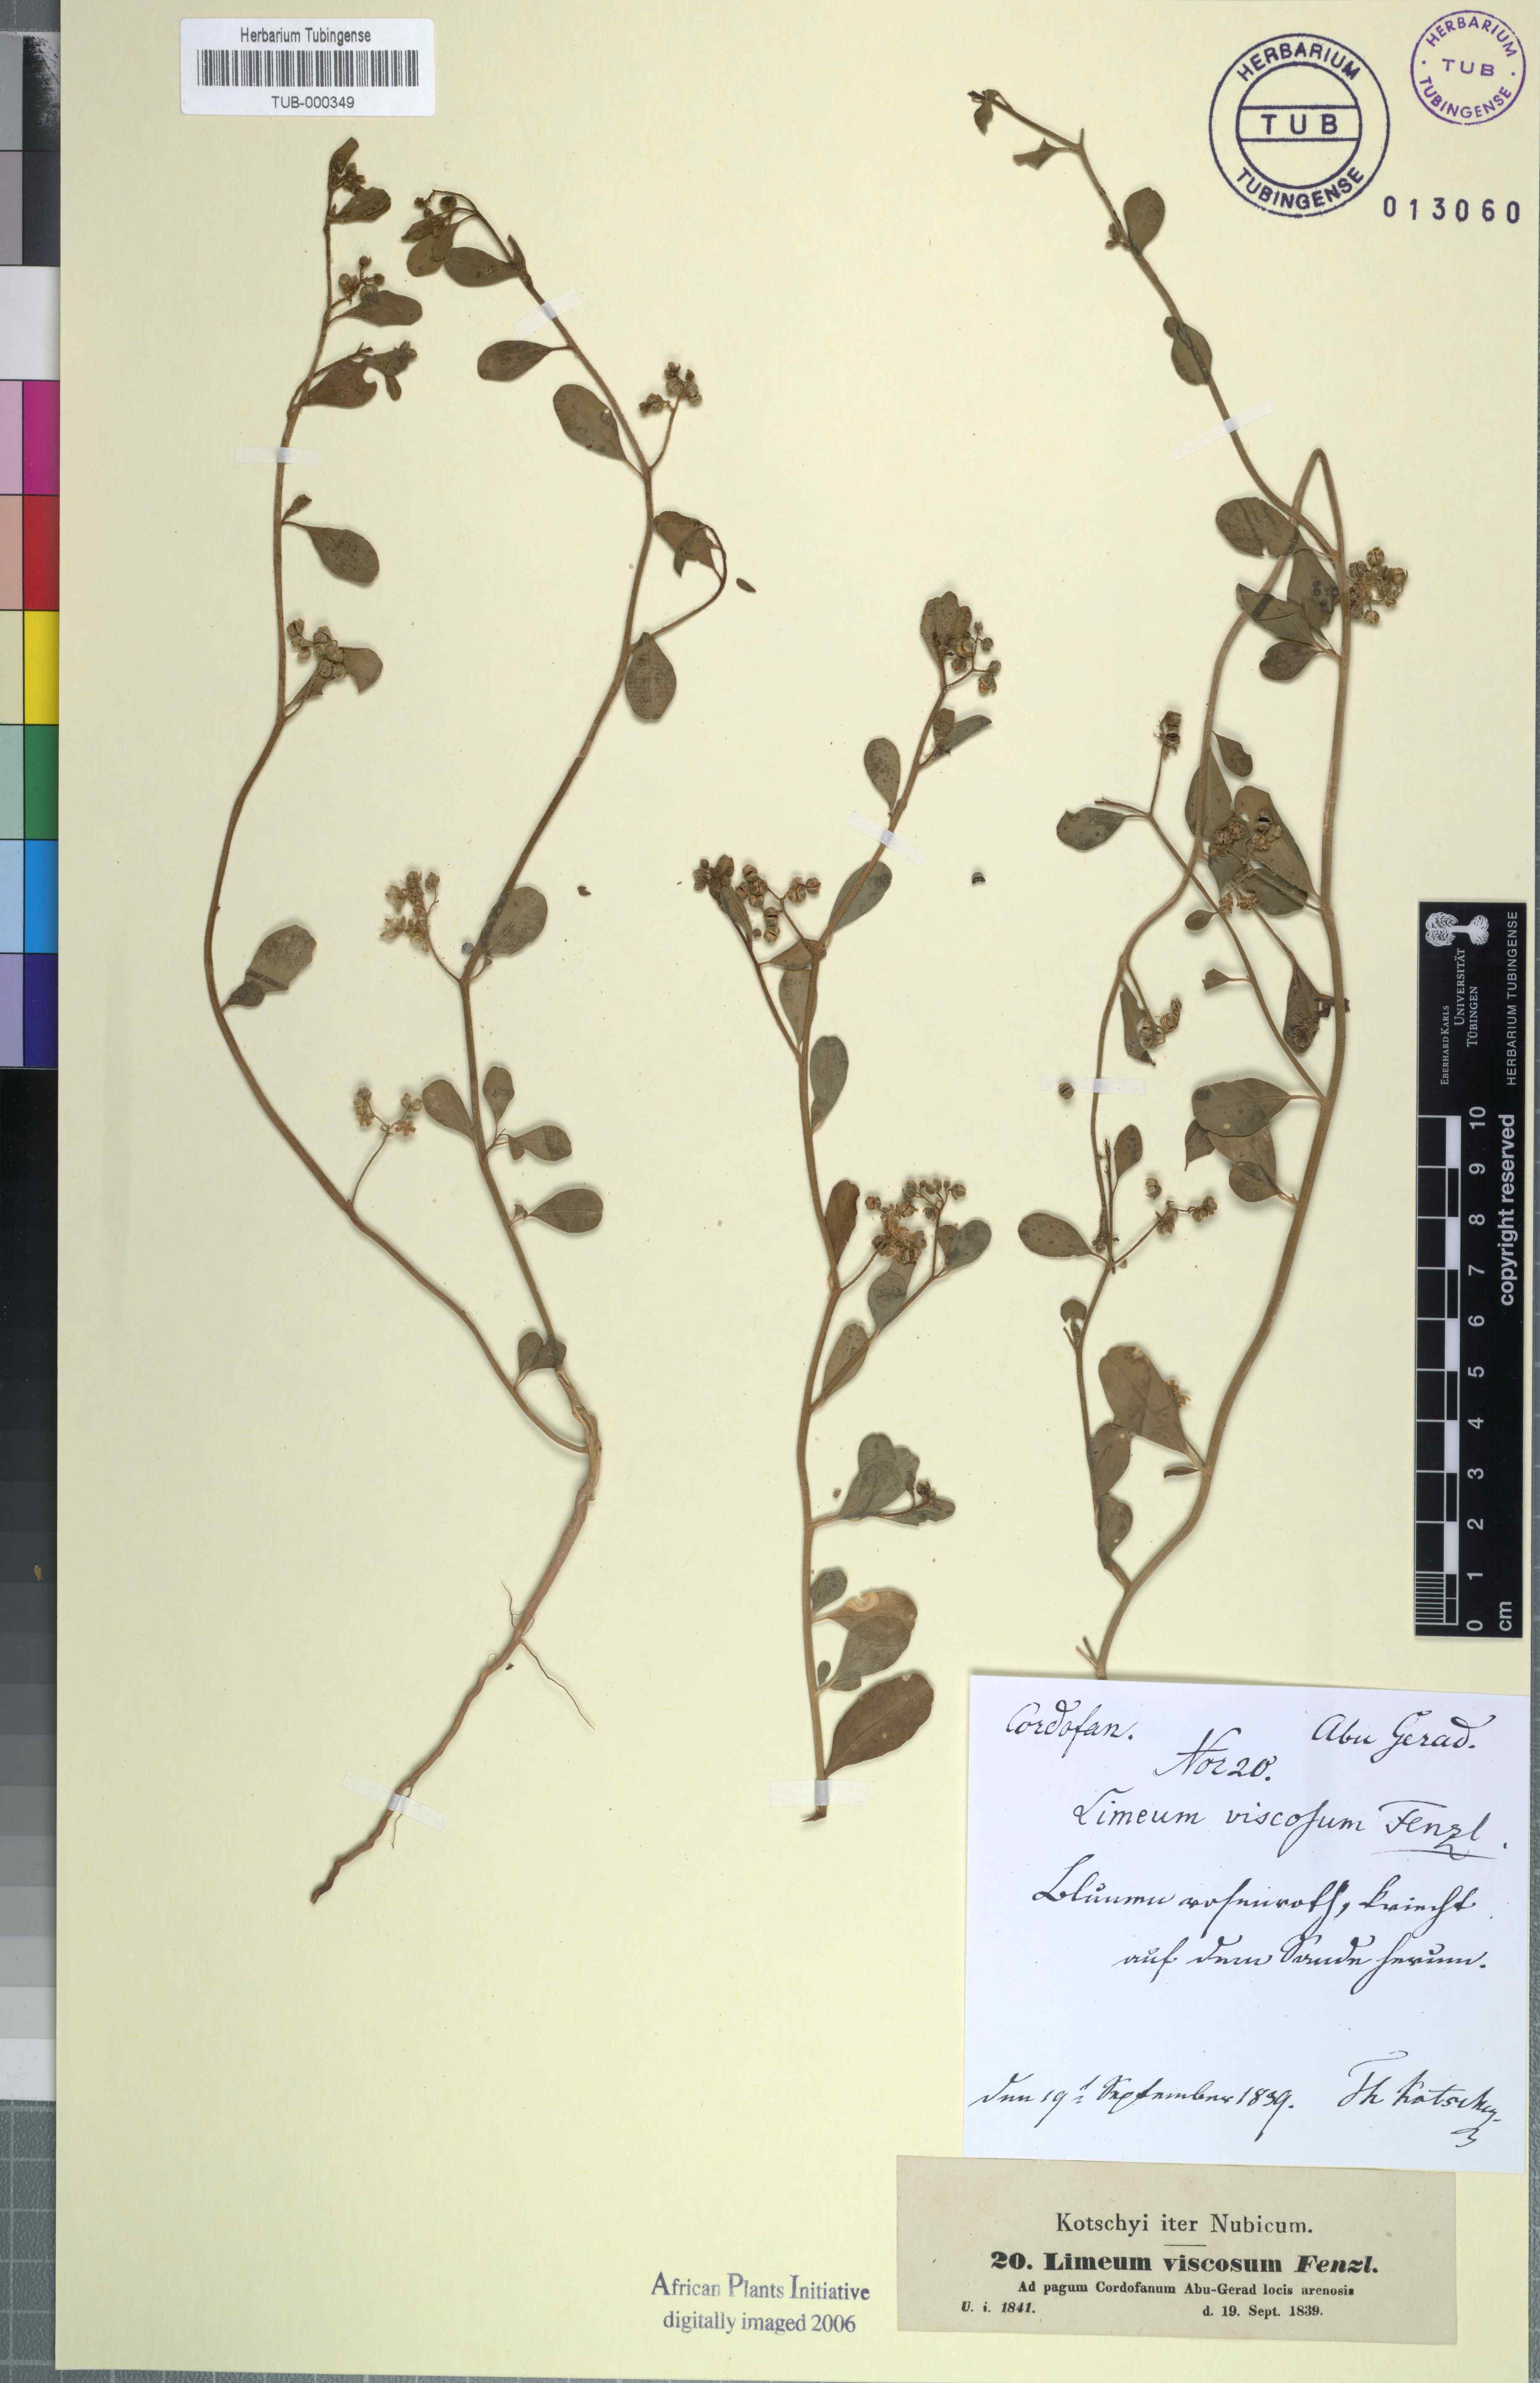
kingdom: Plantae
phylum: Tracheophyta
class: Magnoliopsida
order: Caryophyllales
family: Limeaceae
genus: Limeum
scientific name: Limeum viscosum
